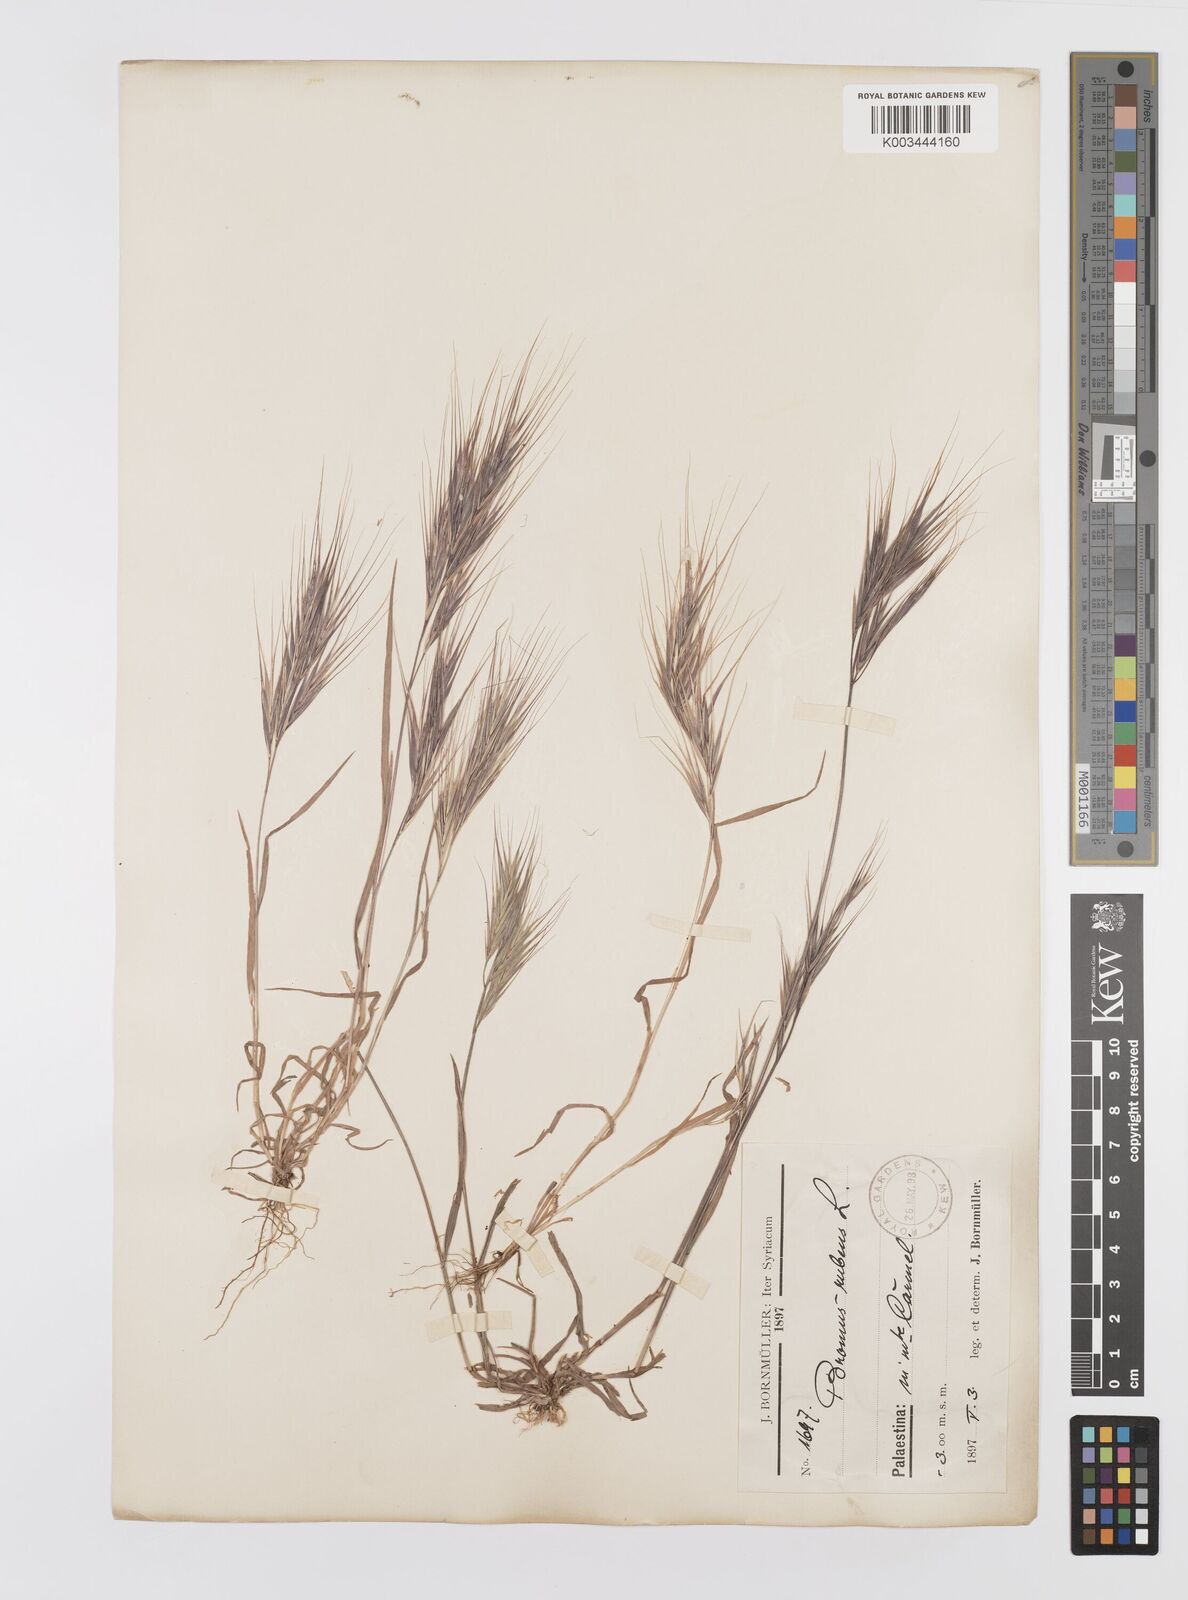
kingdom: Plantae
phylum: Tracheophyta
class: Liliopsida
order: Poales
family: Poaceae
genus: Bromus
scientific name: Bromus madritensis
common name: Compact brome
